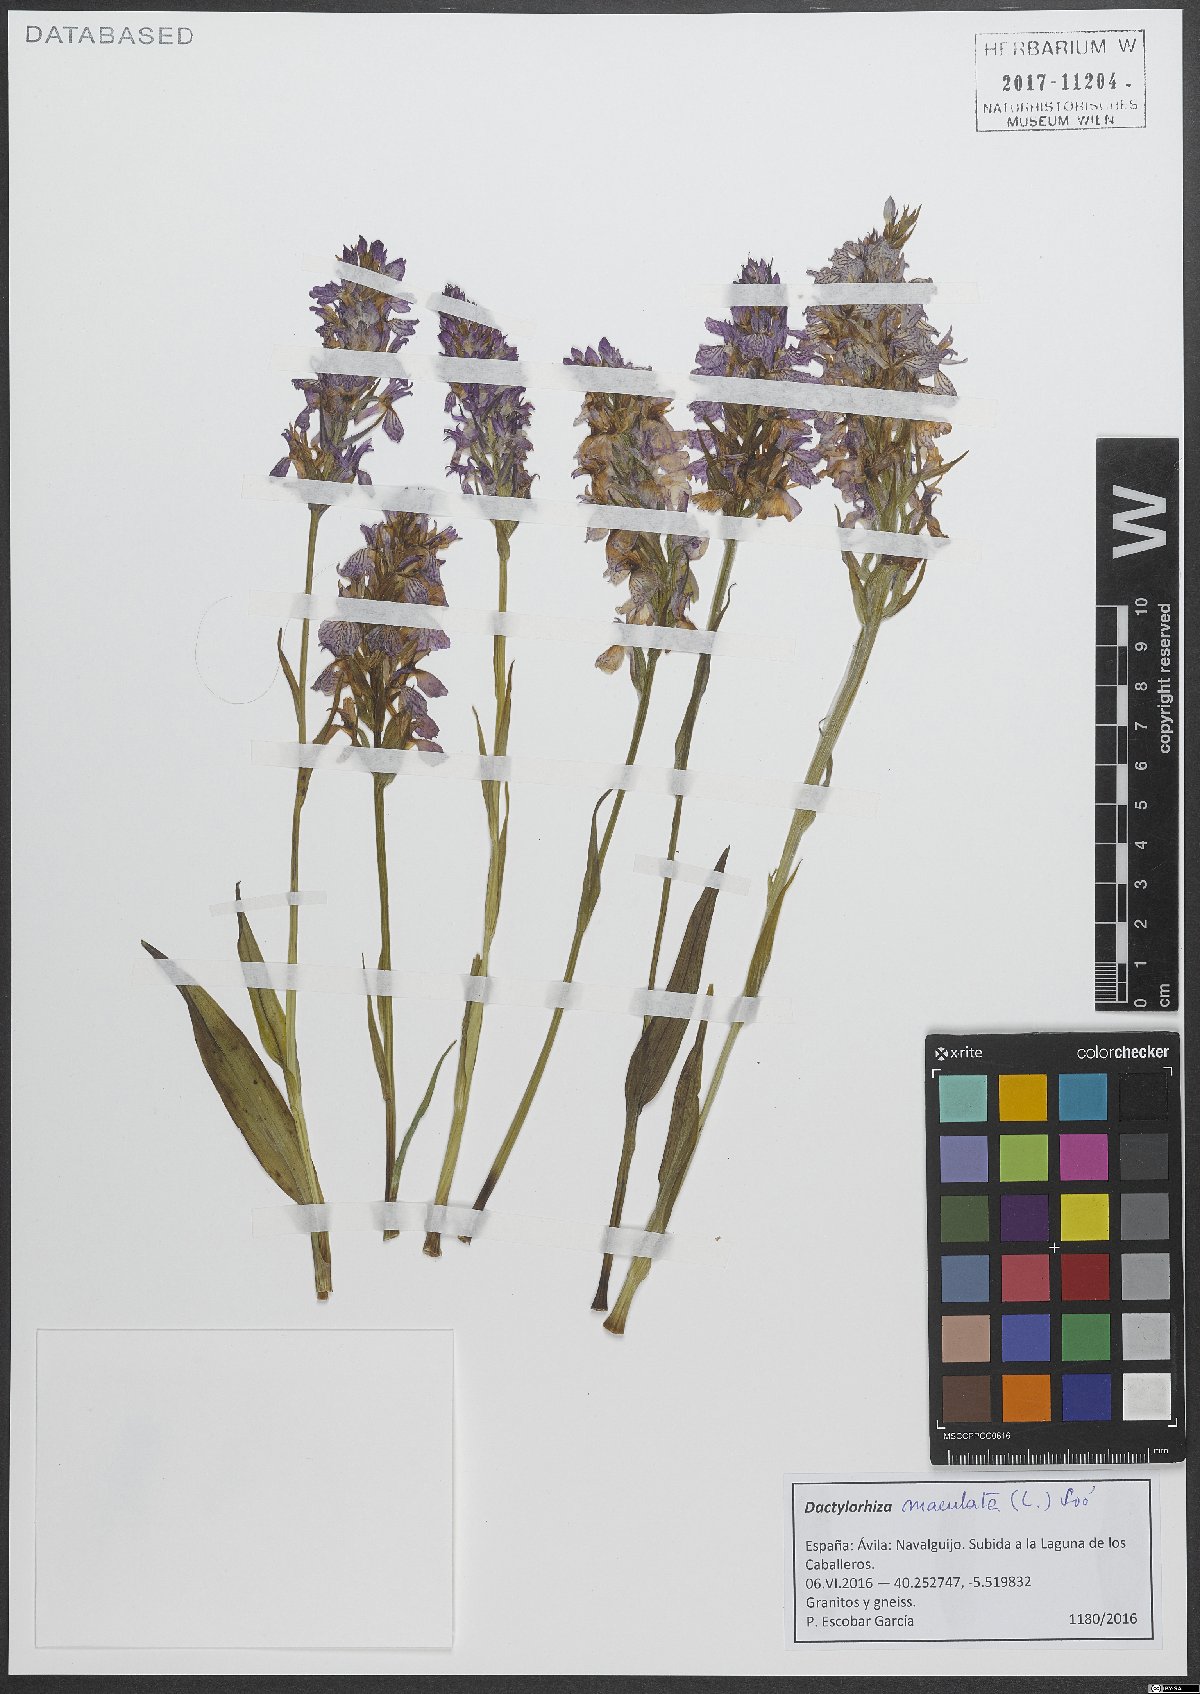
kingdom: Plantae
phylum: Tracheophyta
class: Liliopsida
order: Asparagales
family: Orchidaceae
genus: Dactylorhiza
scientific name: Dactylorhiza maculata
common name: Heath spotted-orchid
